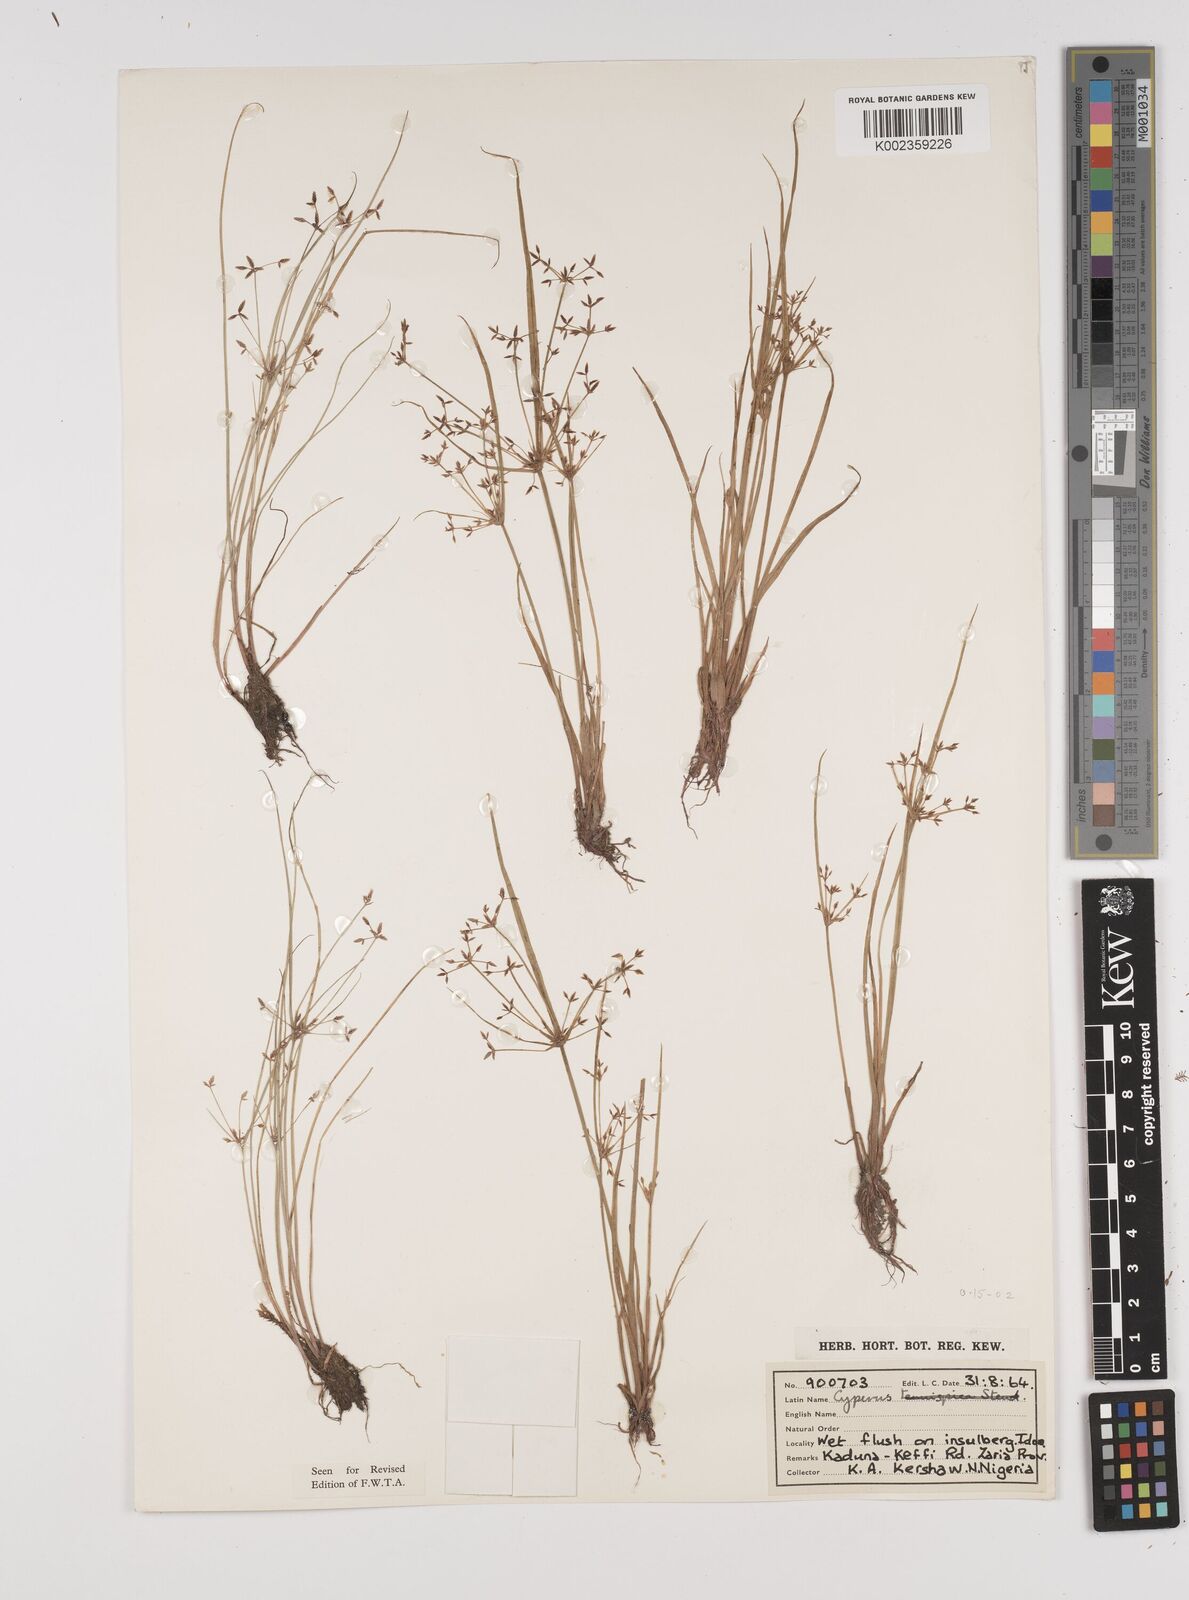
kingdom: Plantae
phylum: Tracheophyta
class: Liliopsida
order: Poales
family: Cyperaceae
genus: Cyperus
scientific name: Cyperus haspan
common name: Haspan flatsedge
